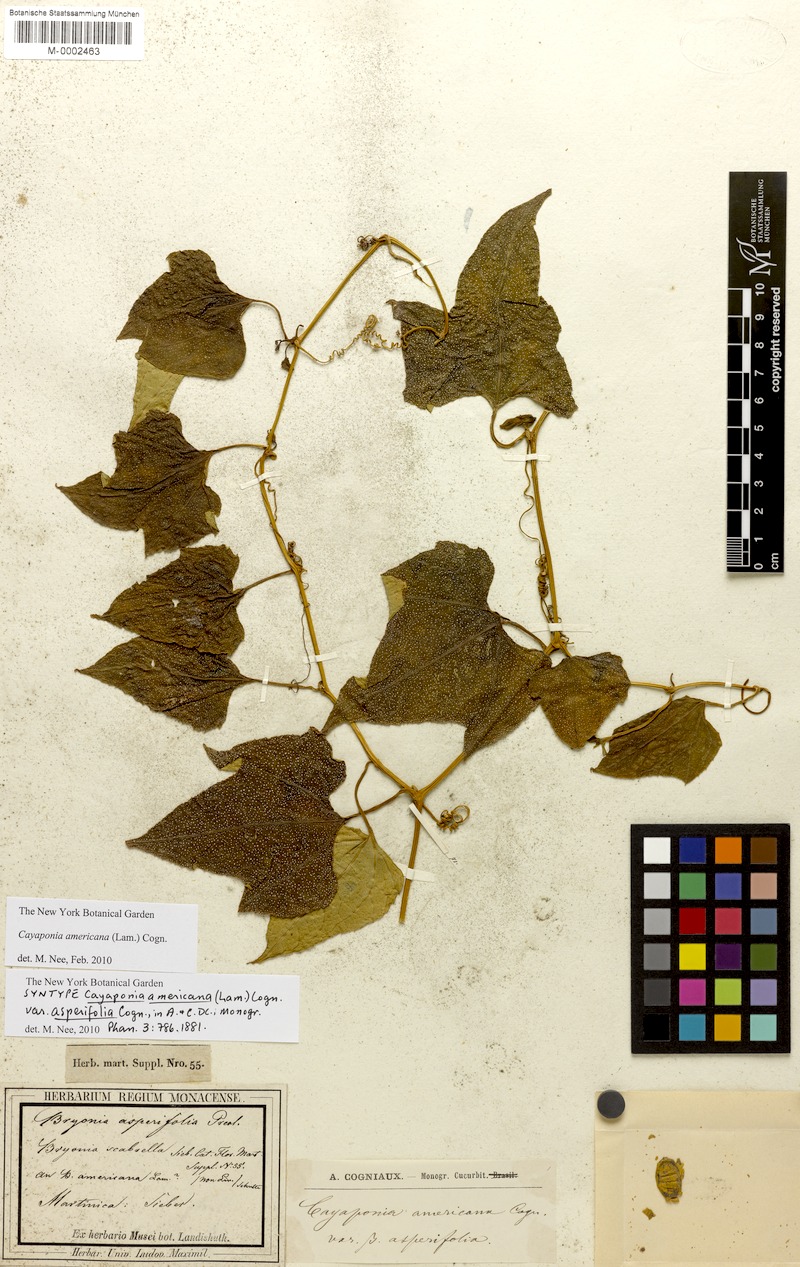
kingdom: Plantae
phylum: Tracheophyta
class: Magnoliopsida
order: Cucurbitales
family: Cucurbitaceae
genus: Cayaponia
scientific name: Cayaponia americana
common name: American melonleaf
